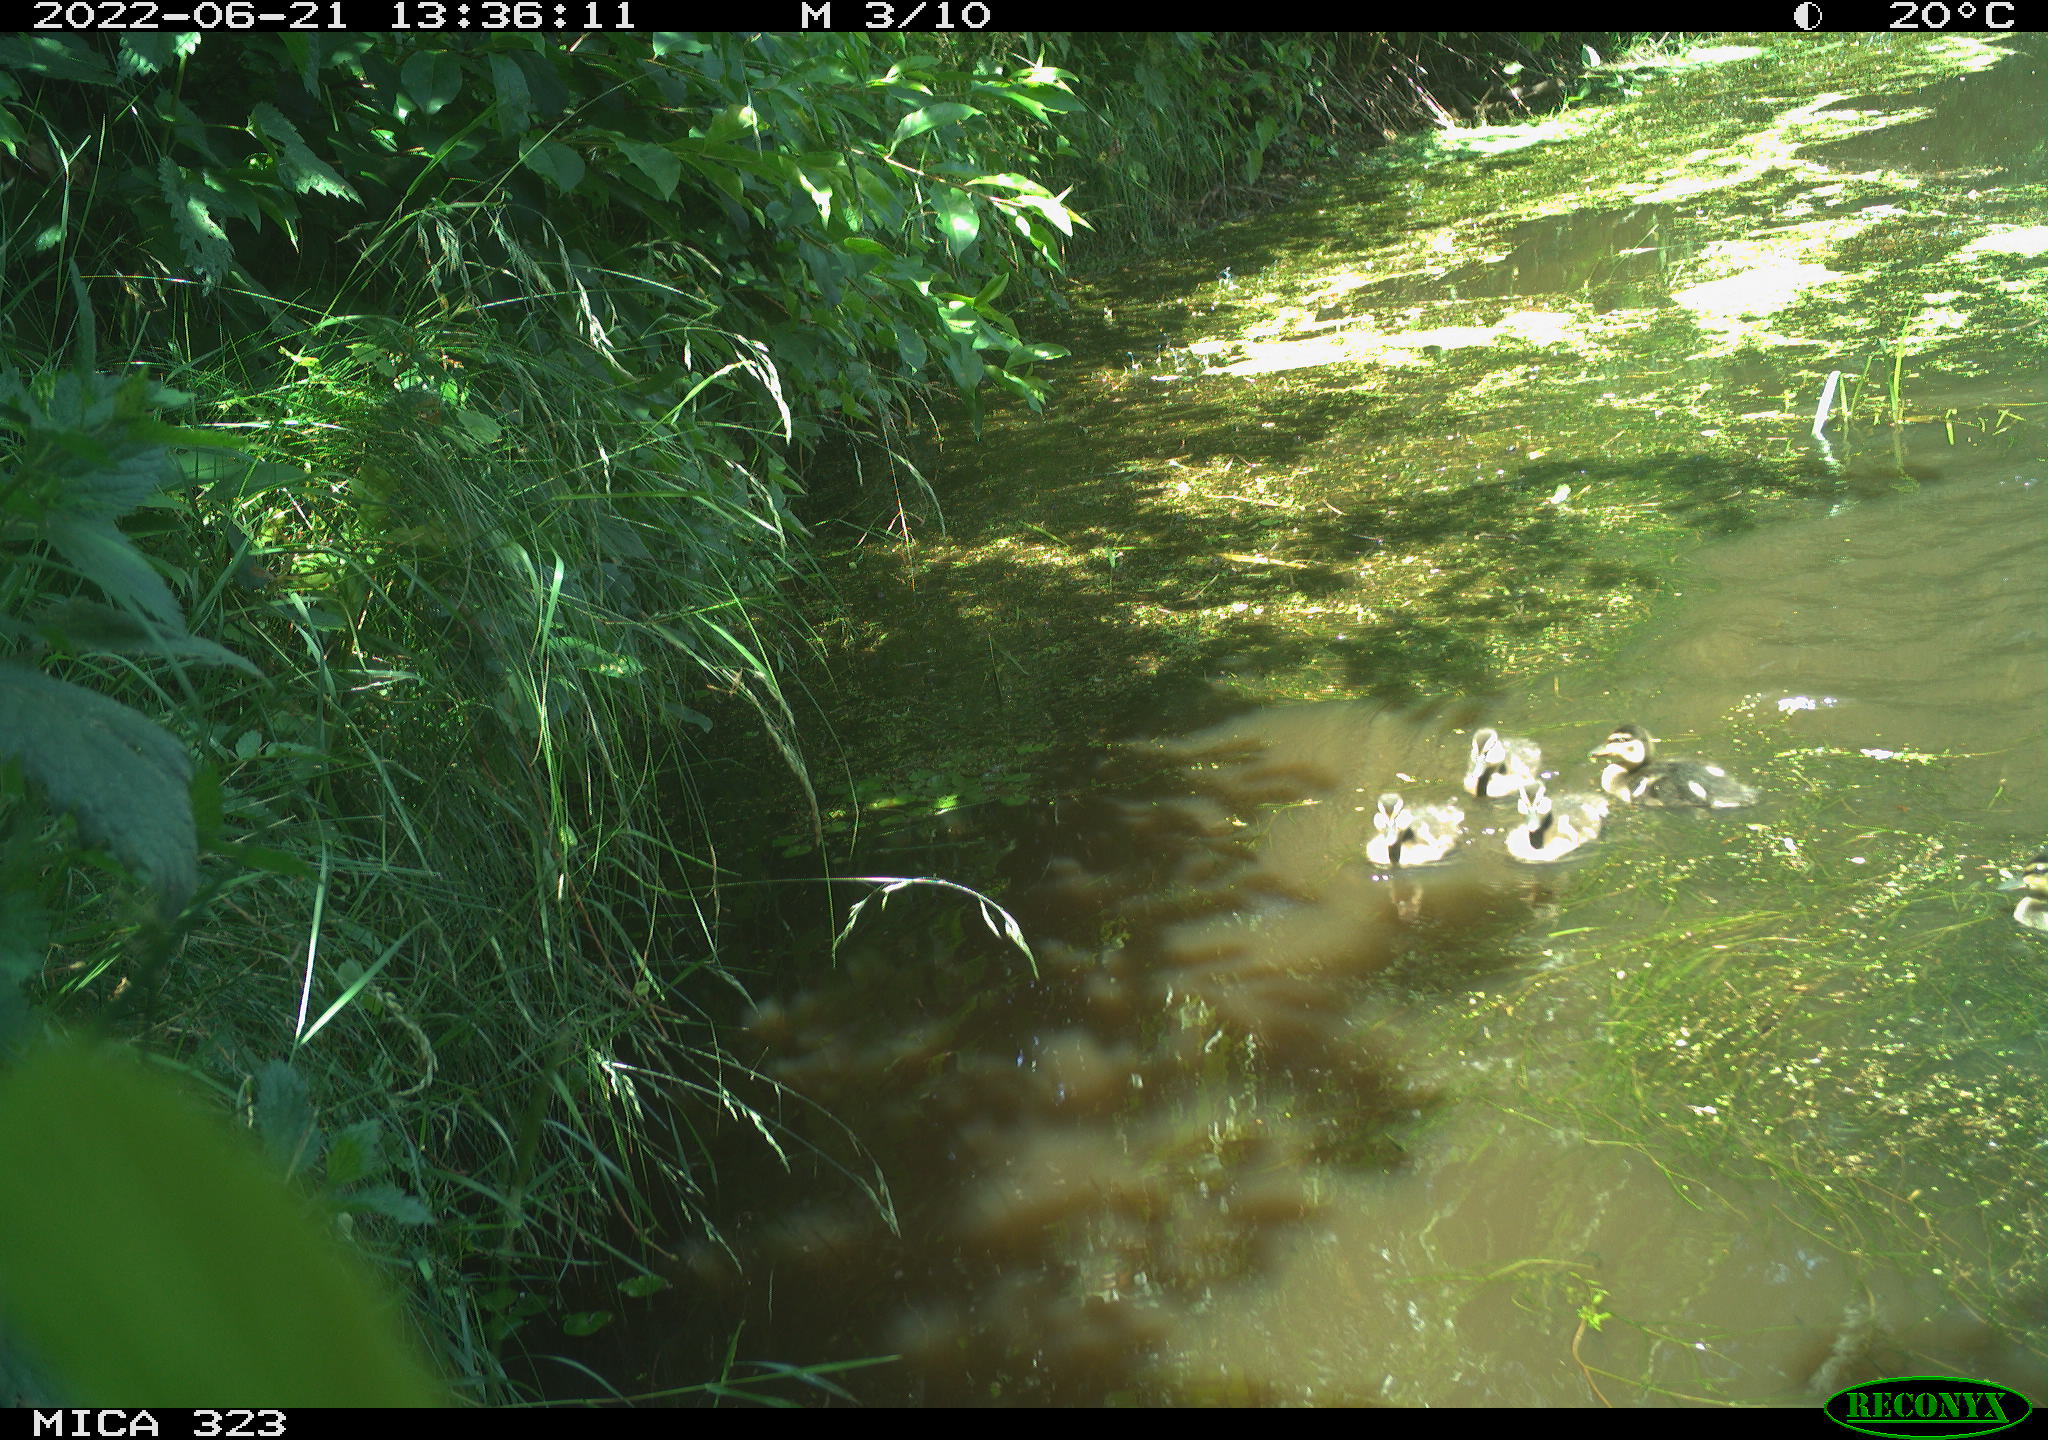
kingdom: Animalia
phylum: Chordata
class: Aves
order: Anseriformes
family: Anatidae
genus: Anas
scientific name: Anas platyrhynchos
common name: Mallard
